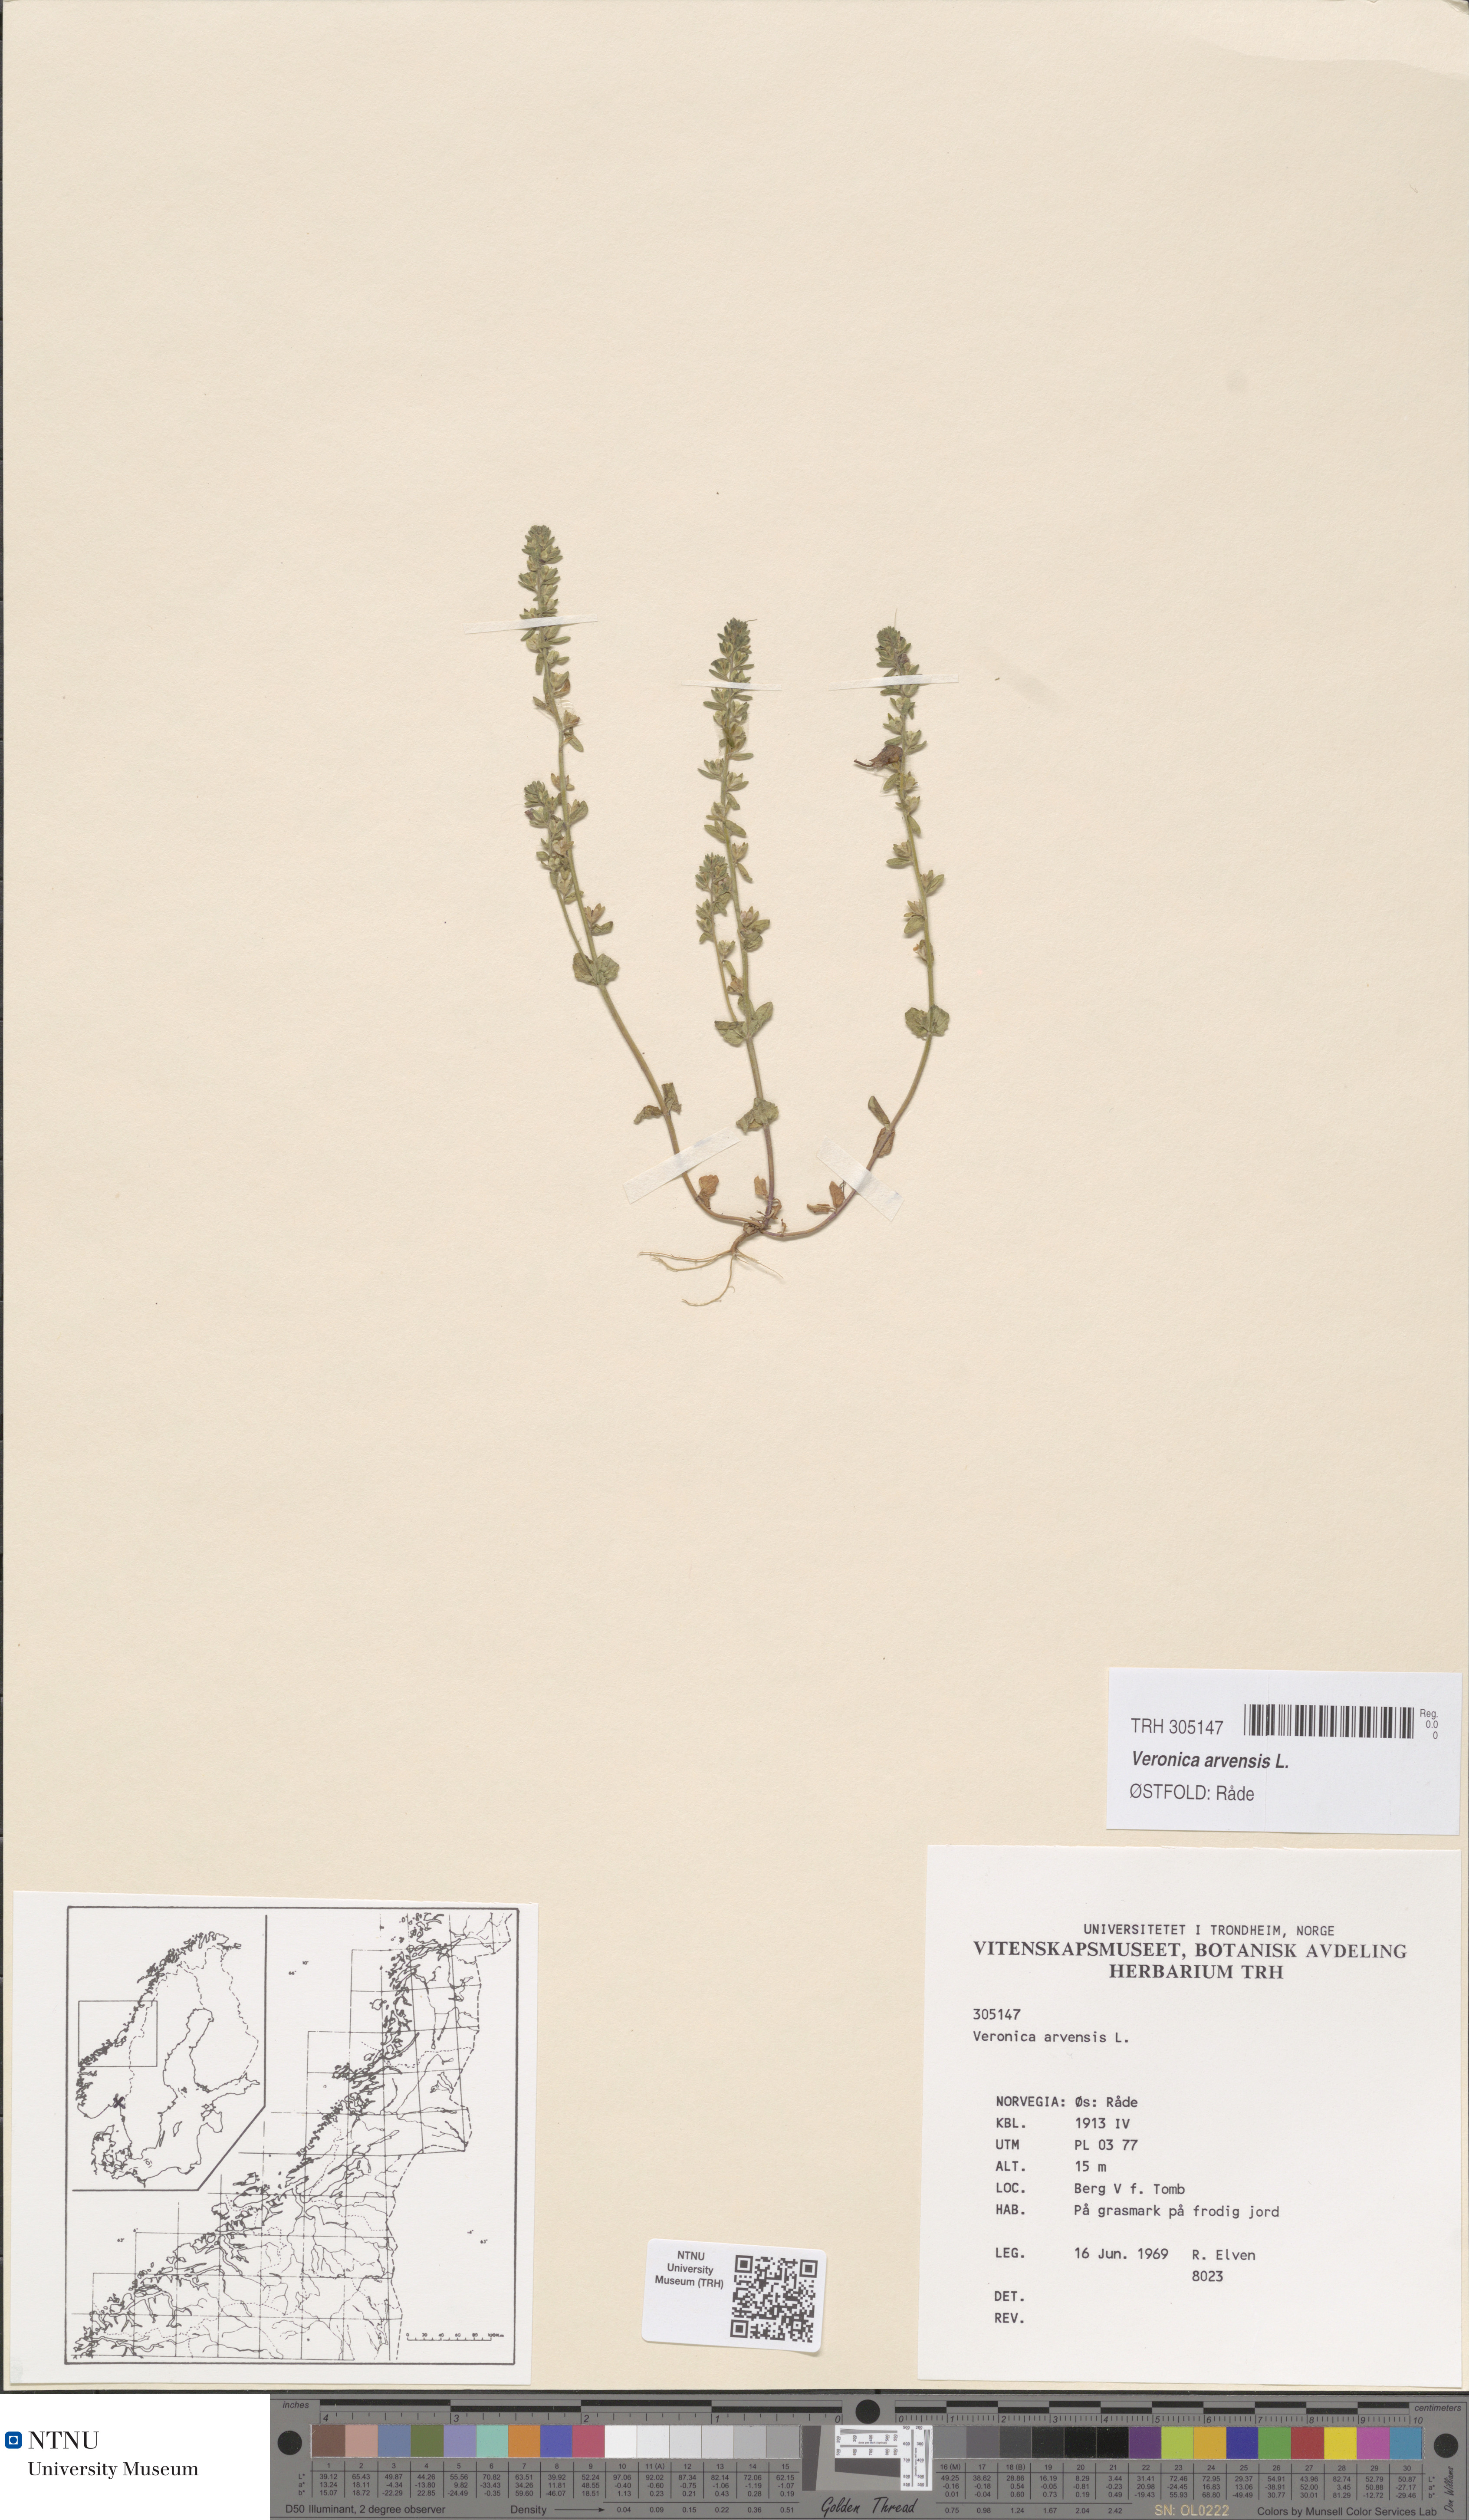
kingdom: Plantae
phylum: Tracheophyta
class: Magnoliopsida
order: Lamiales
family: Plantaginaceae
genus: Veronica
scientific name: Veronica arvensis
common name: Corn speedwell
